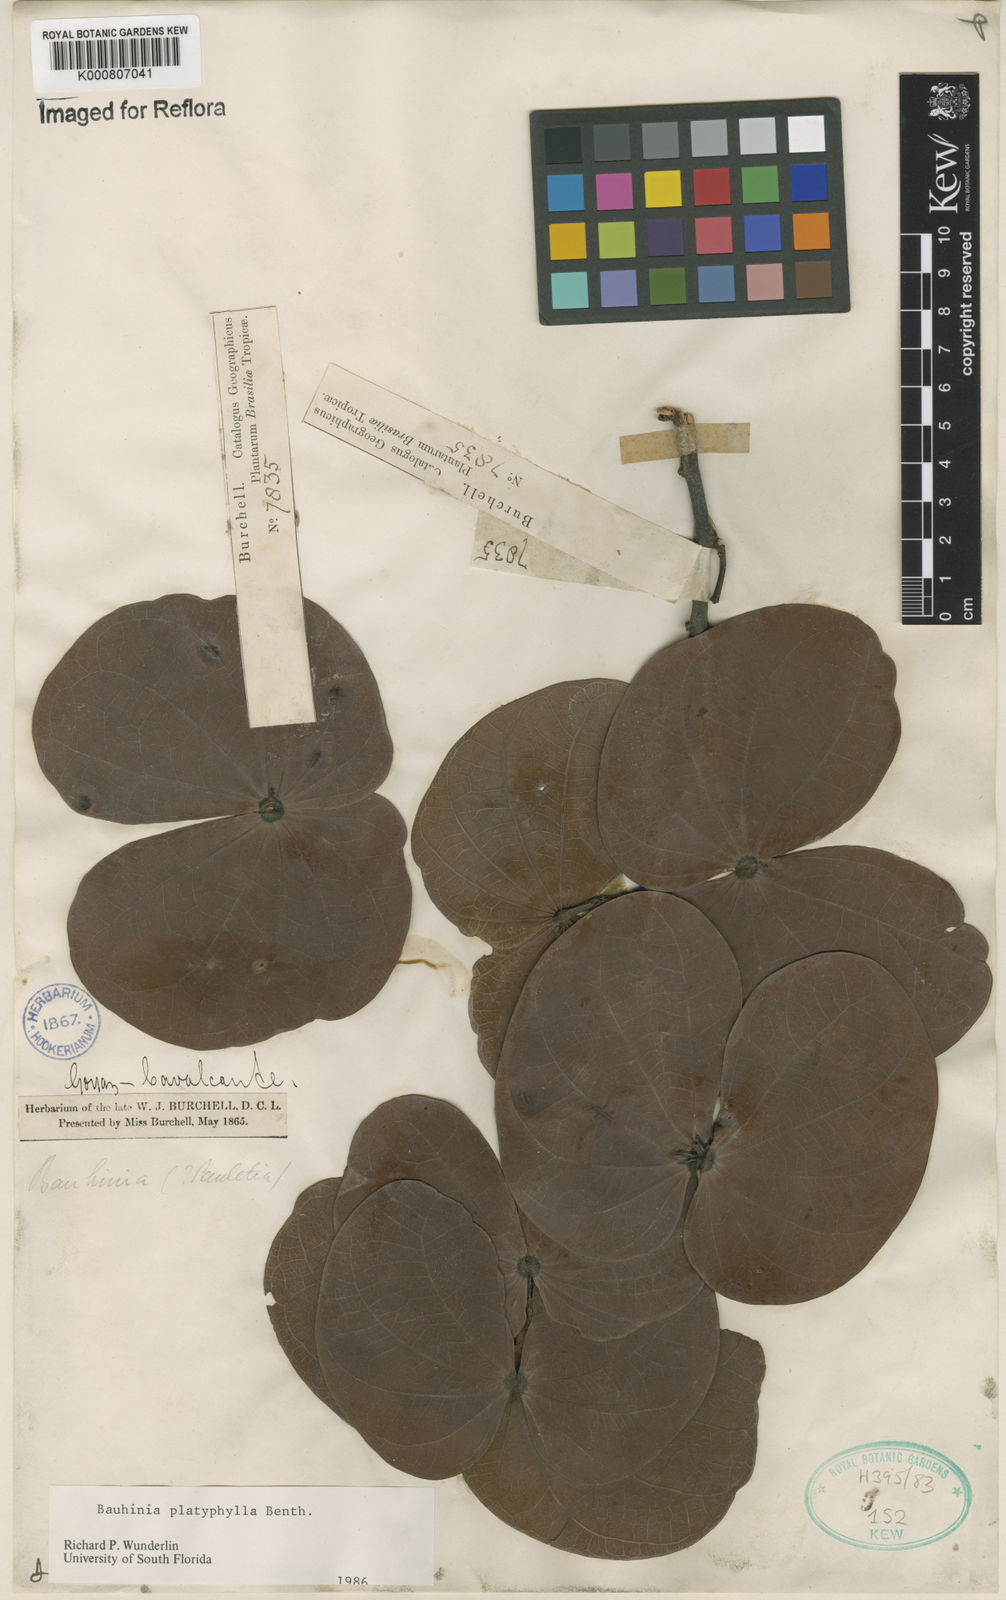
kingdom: Plantae
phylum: Tracheophyta
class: Magnoliopsida
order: Fabales
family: Fabaceae
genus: Bauhinia
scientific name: Bauhinia platyphylla
